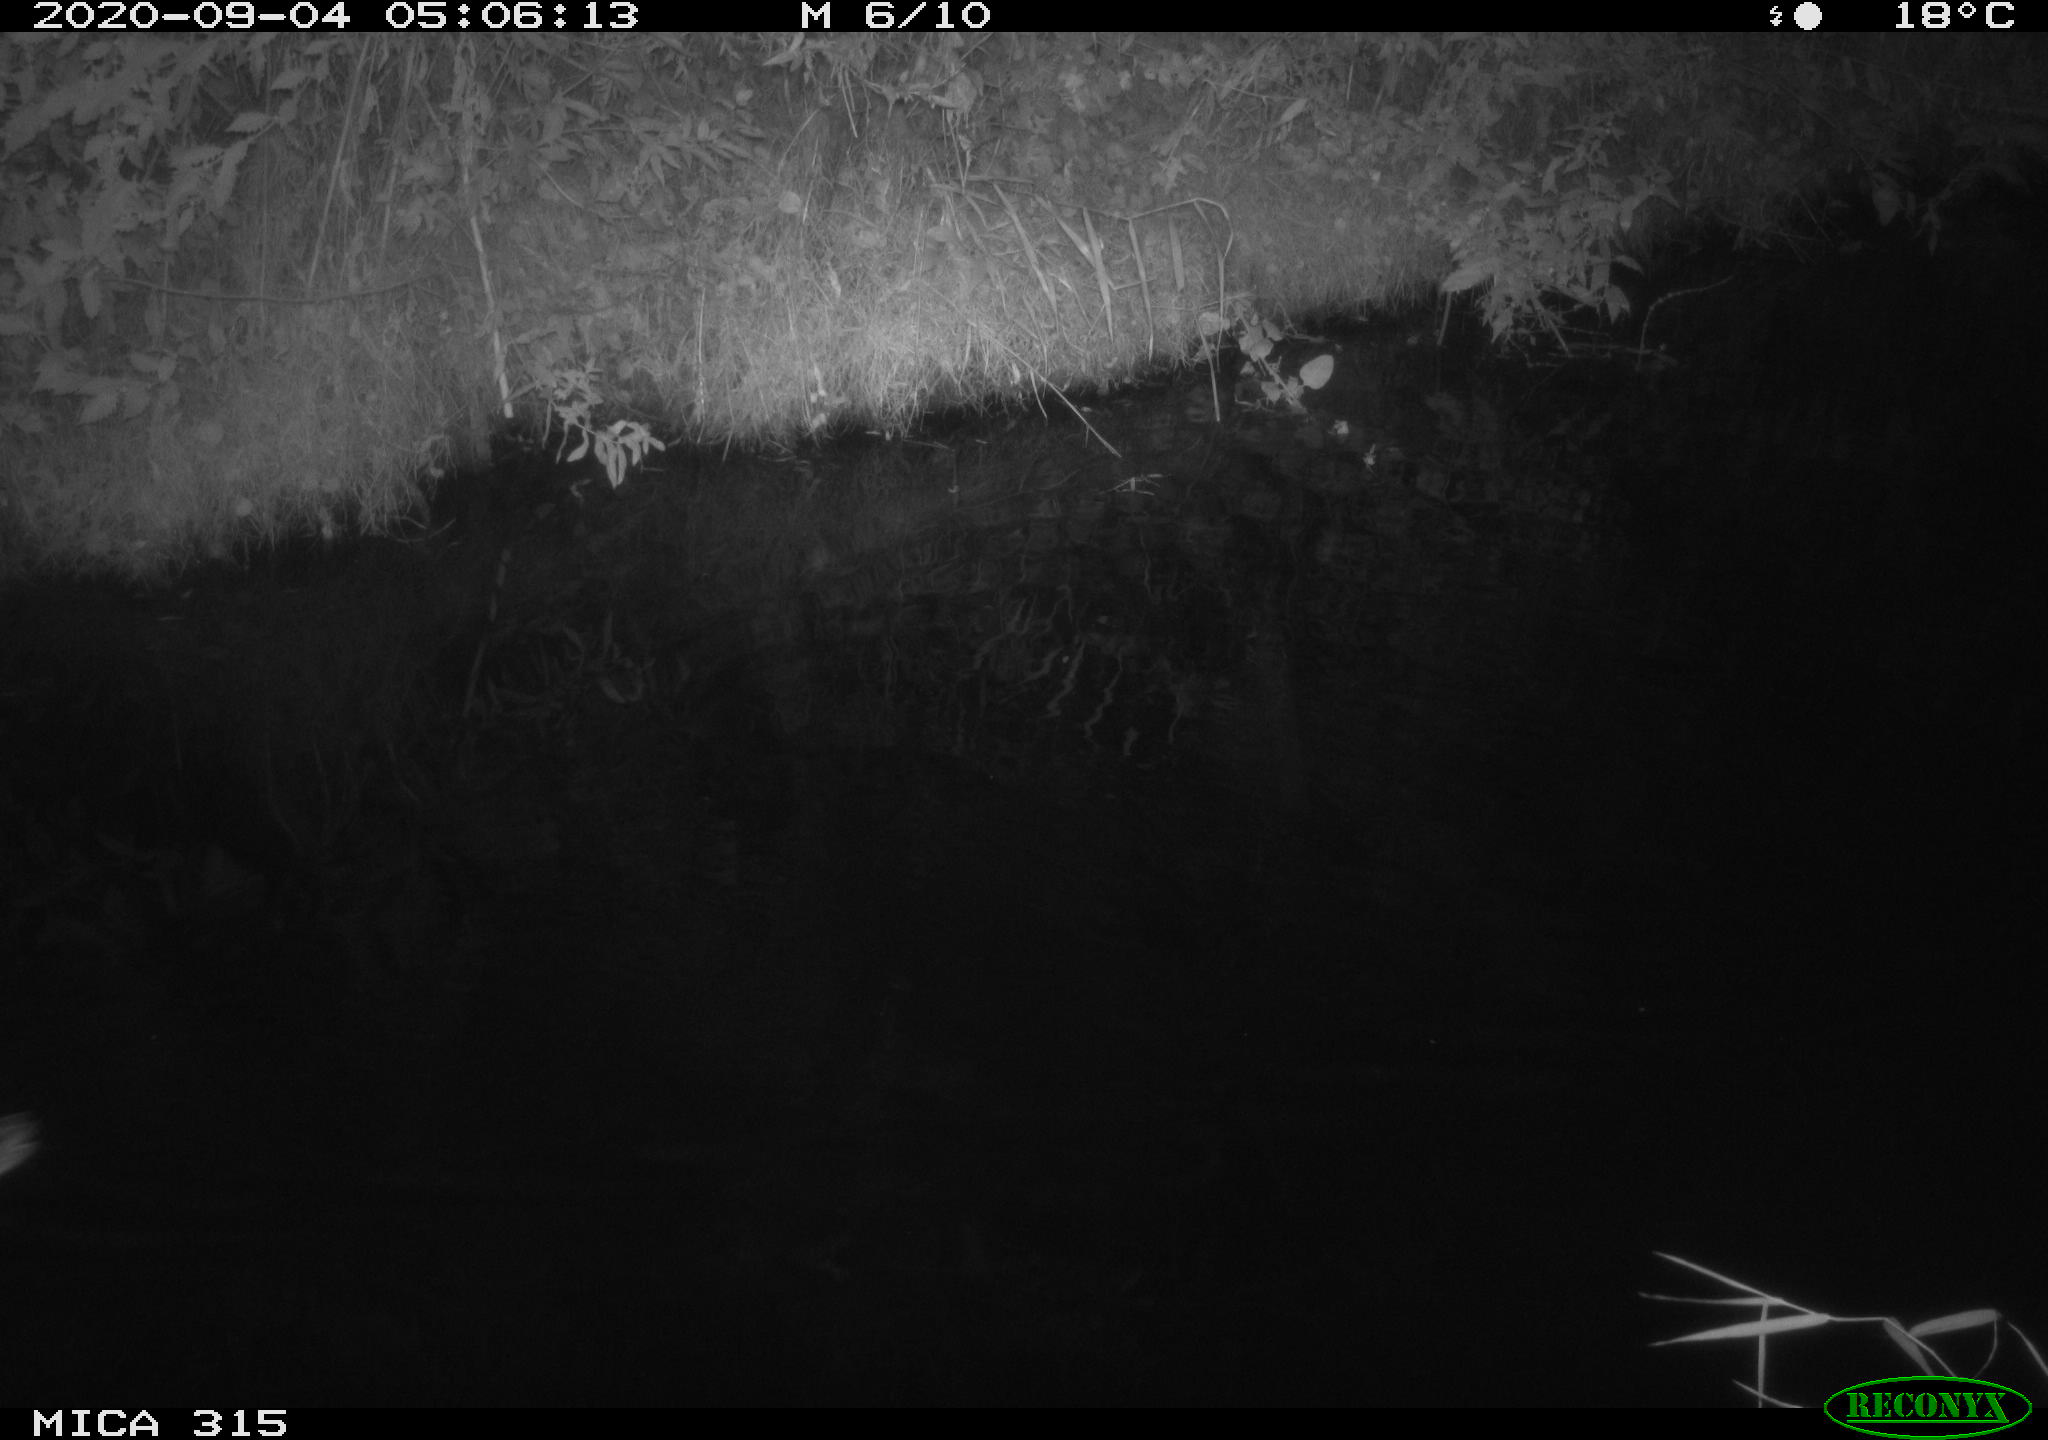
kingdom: Animalia
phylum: Chordata
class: Aves
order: Anseriformes
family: Anatidae
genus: Anas
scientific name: Anas platyrhynchos
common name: Mallard
